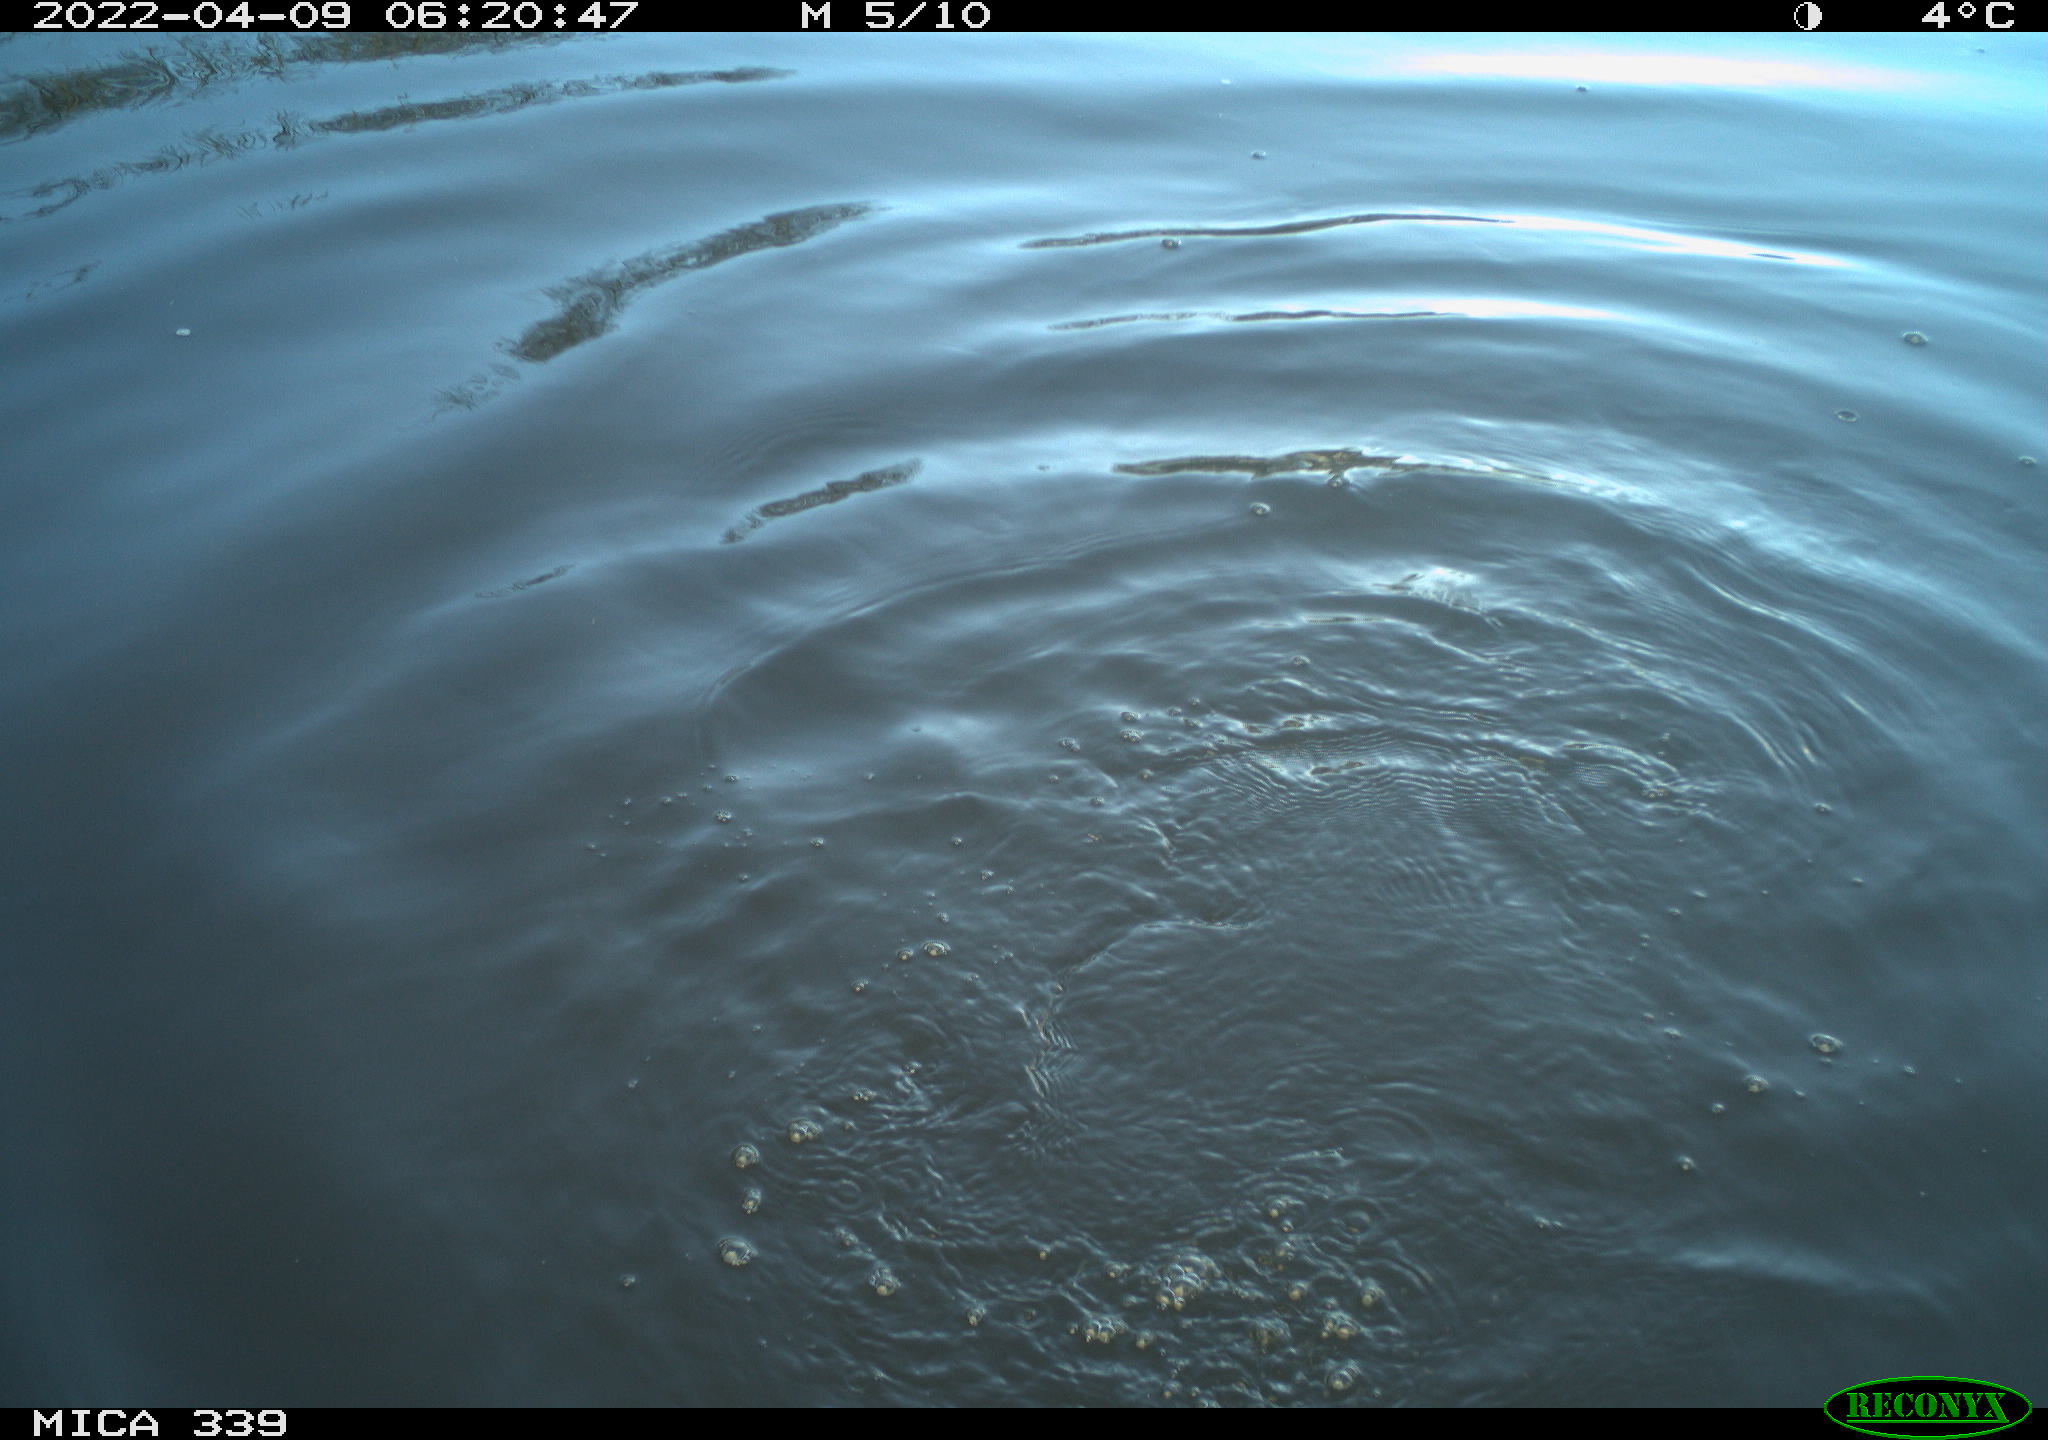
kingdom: Animalia
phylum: Chordata
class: Aves
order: Suliformes
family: Phalacrocoracidae
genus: Phalacrocorax
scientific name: Phalacrocorax carbo
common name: Great cormorant
